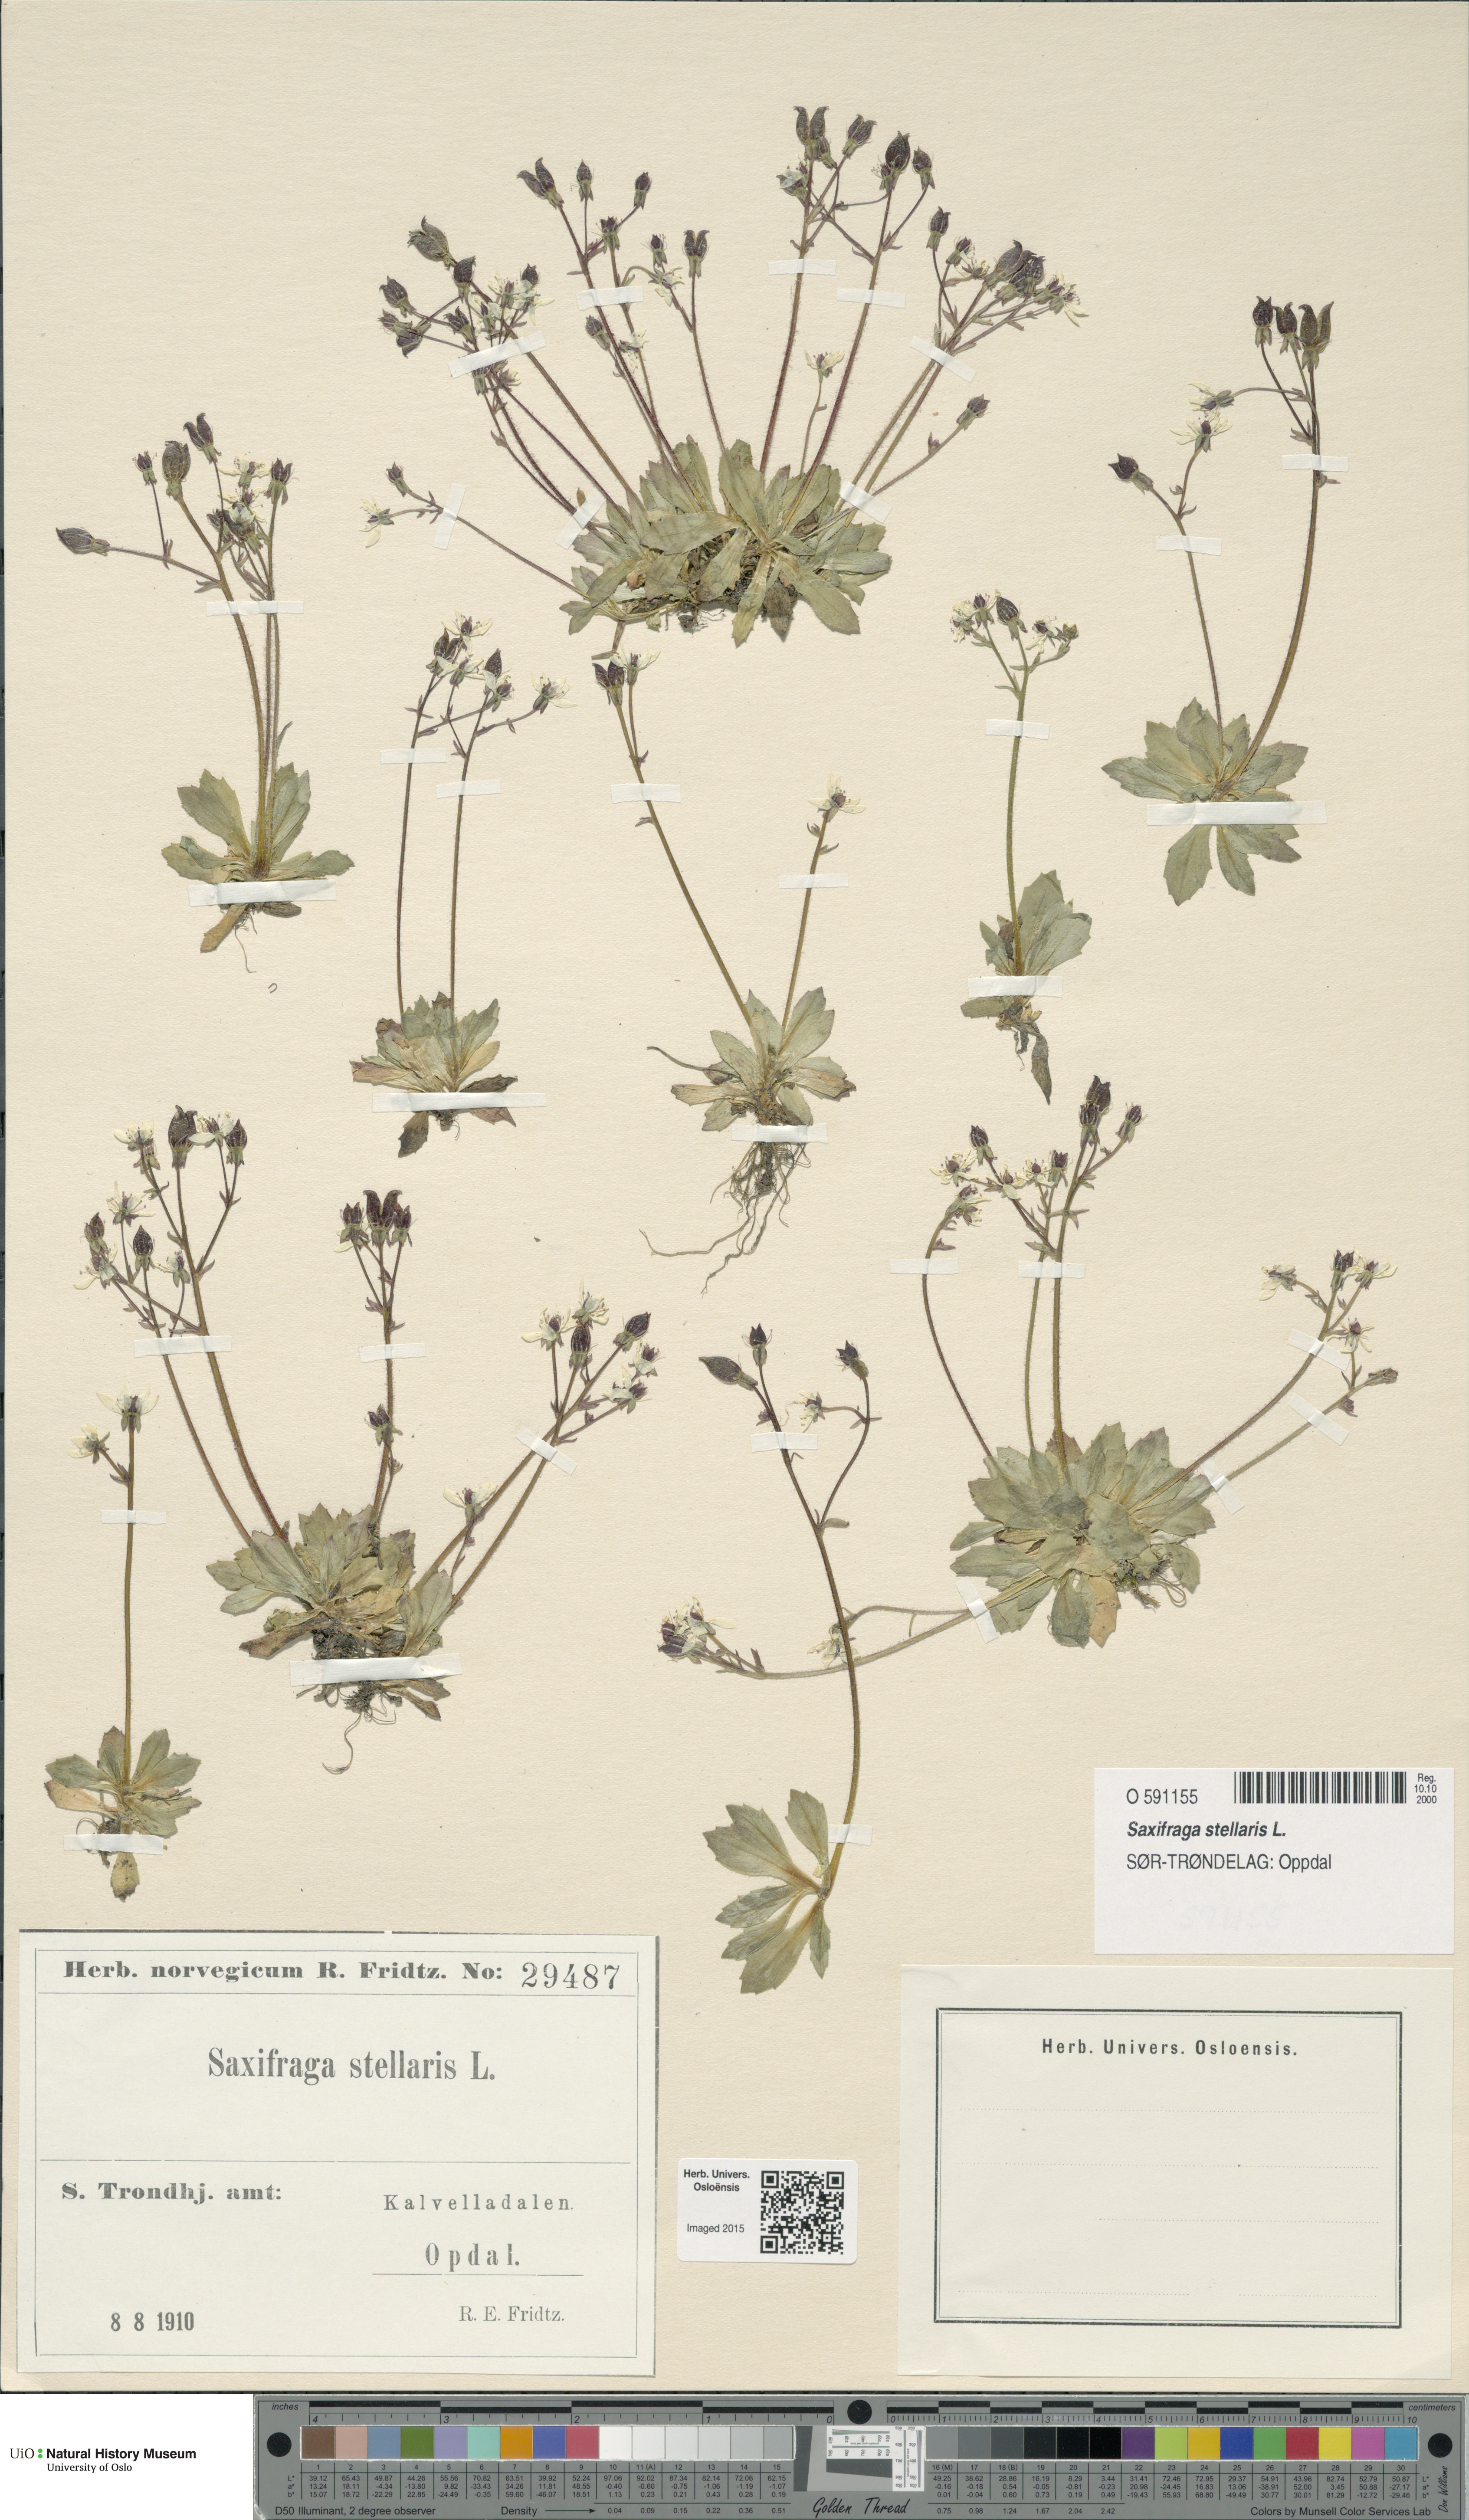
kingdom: Plantae
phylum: Tracheophyta
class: Magnoliopsida
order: Saxifragales
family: Saxifragaceae
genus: Micranthes
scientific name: Micranthes stellaris
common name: Starry saxifrage
